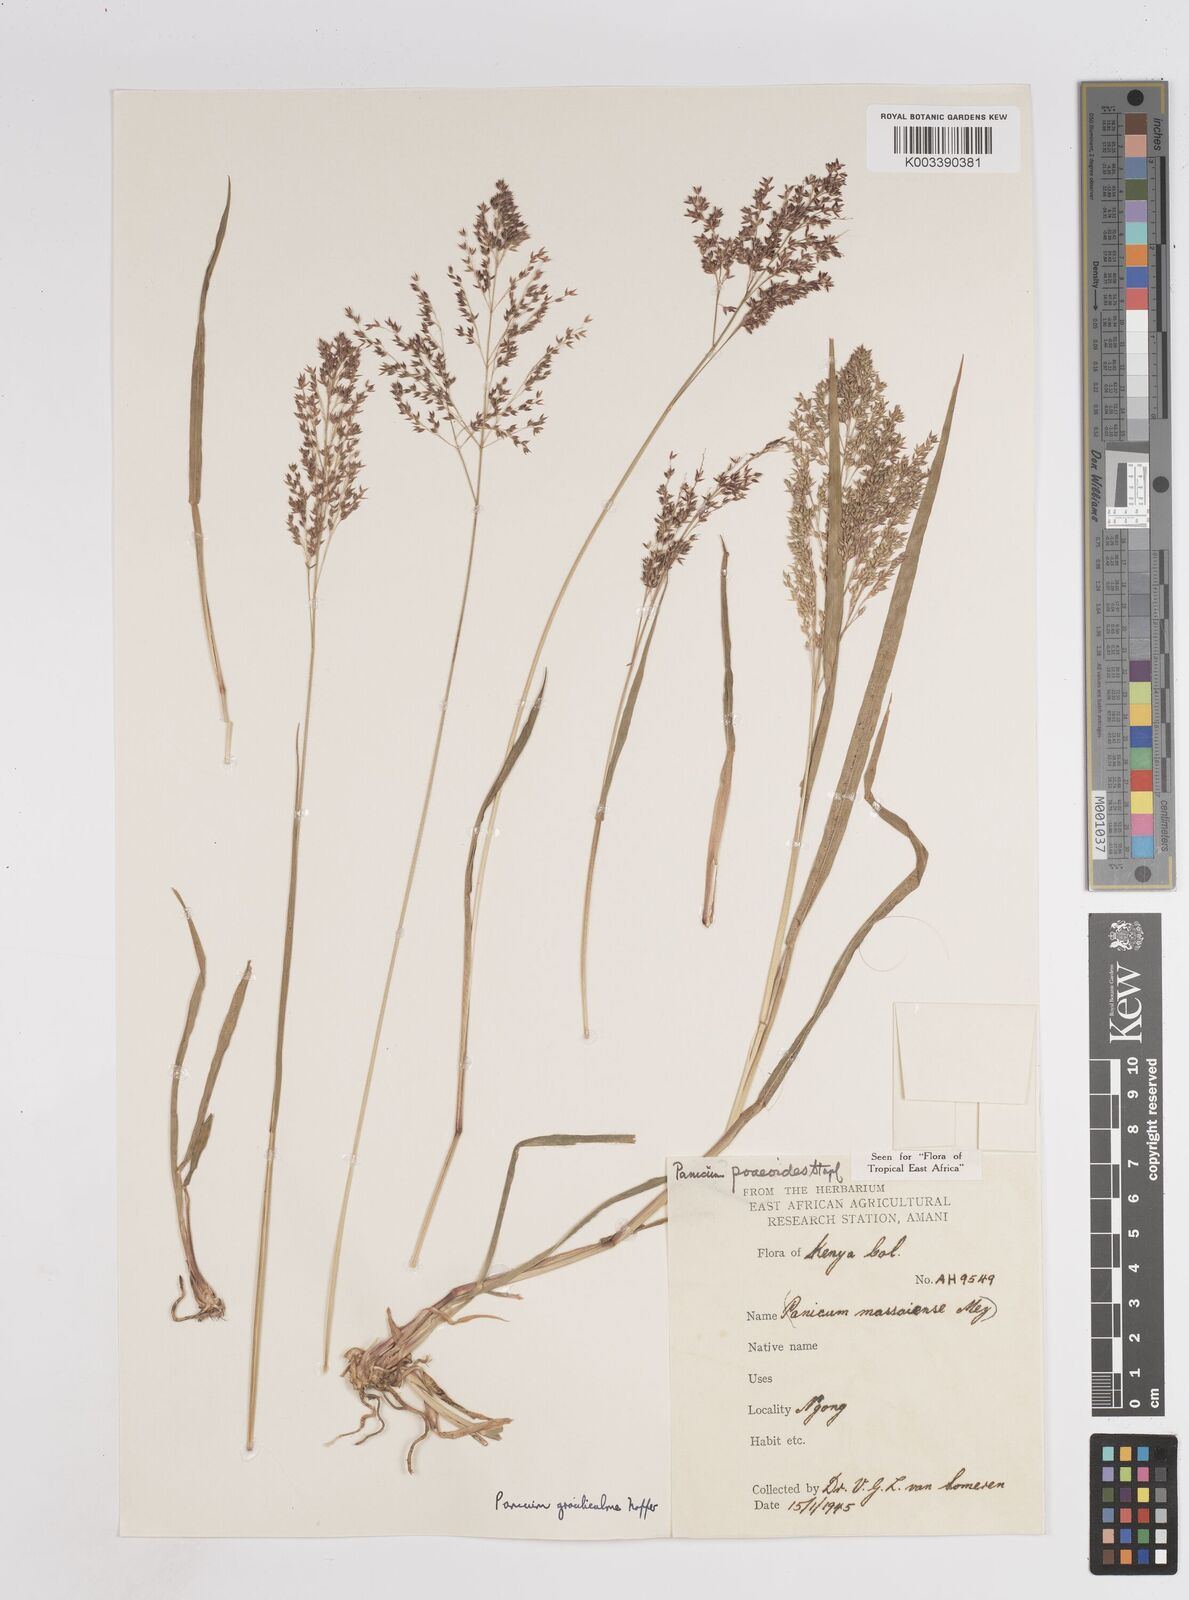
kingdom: Plantae
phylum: Tracheophyta
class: Liliopsida
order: Poales
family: Poaceae
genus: Panicum
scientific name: Panicum
